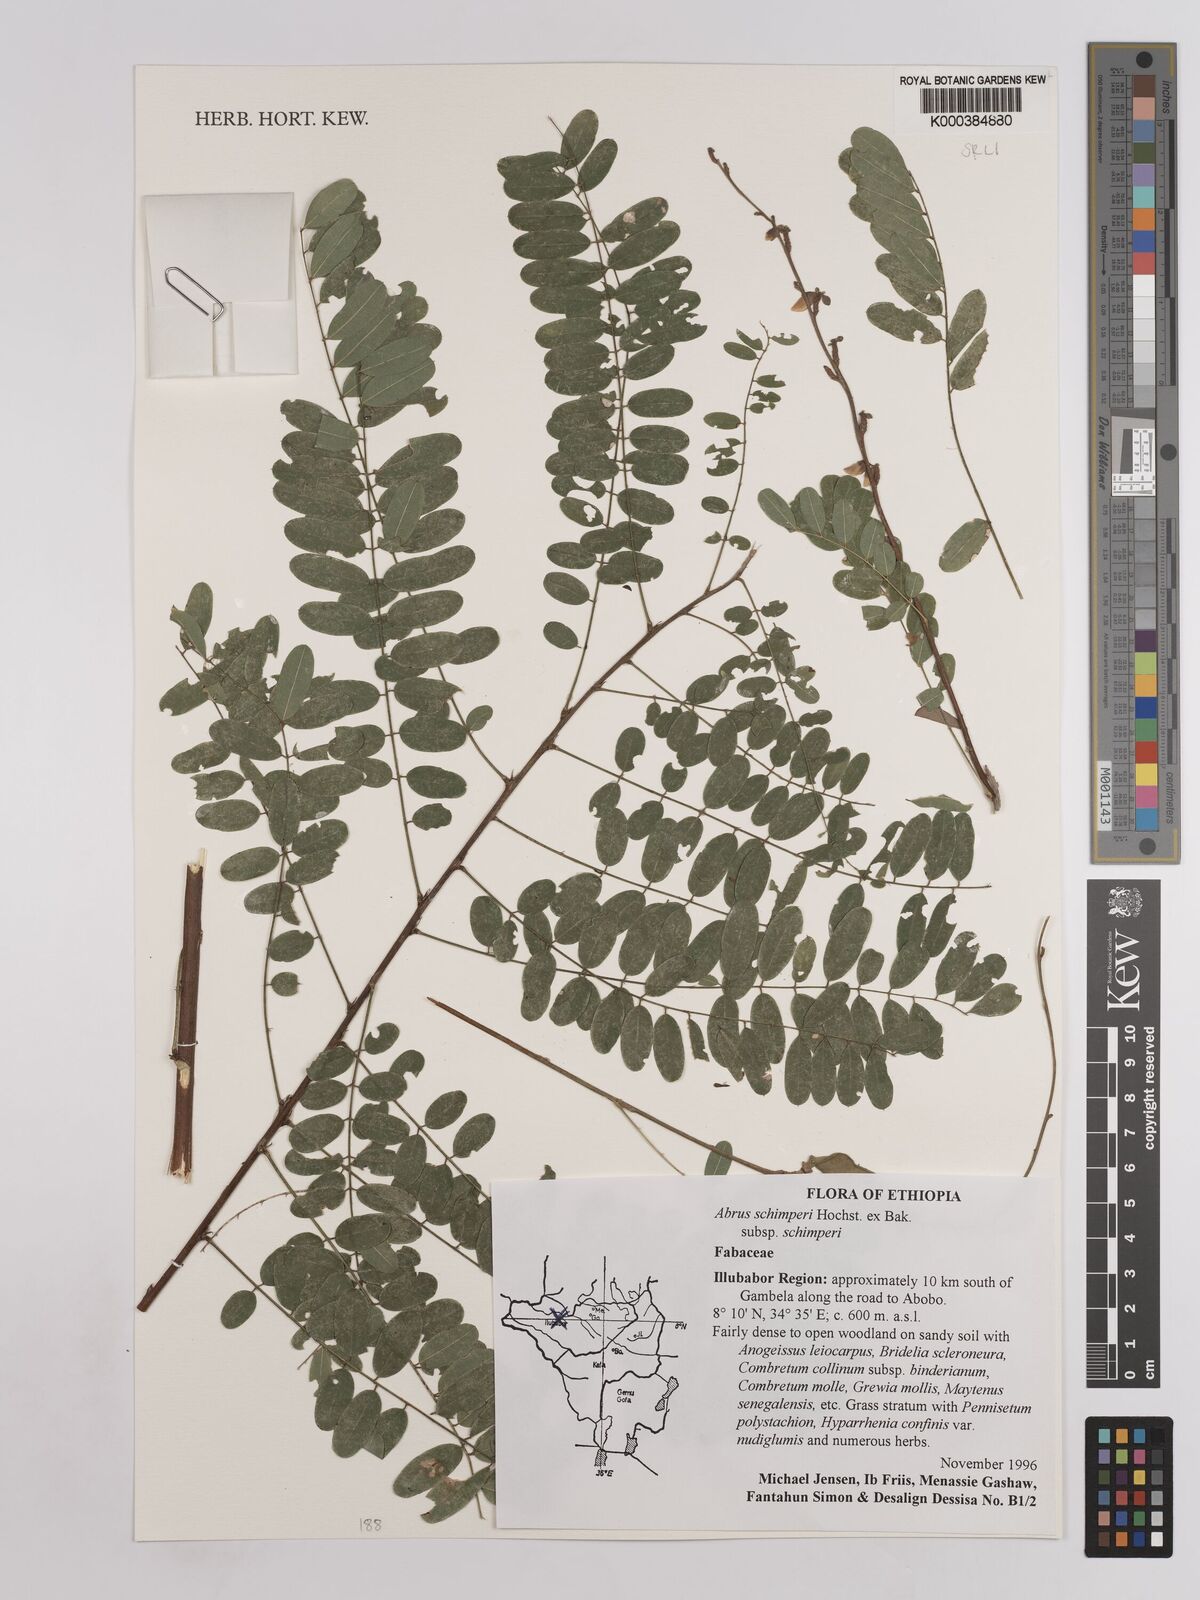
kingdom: Plantae
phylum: Tracheophyta
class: Magnoliopsida
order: Fabales
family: Fabaceae
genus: Abrus
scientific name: Abrus
